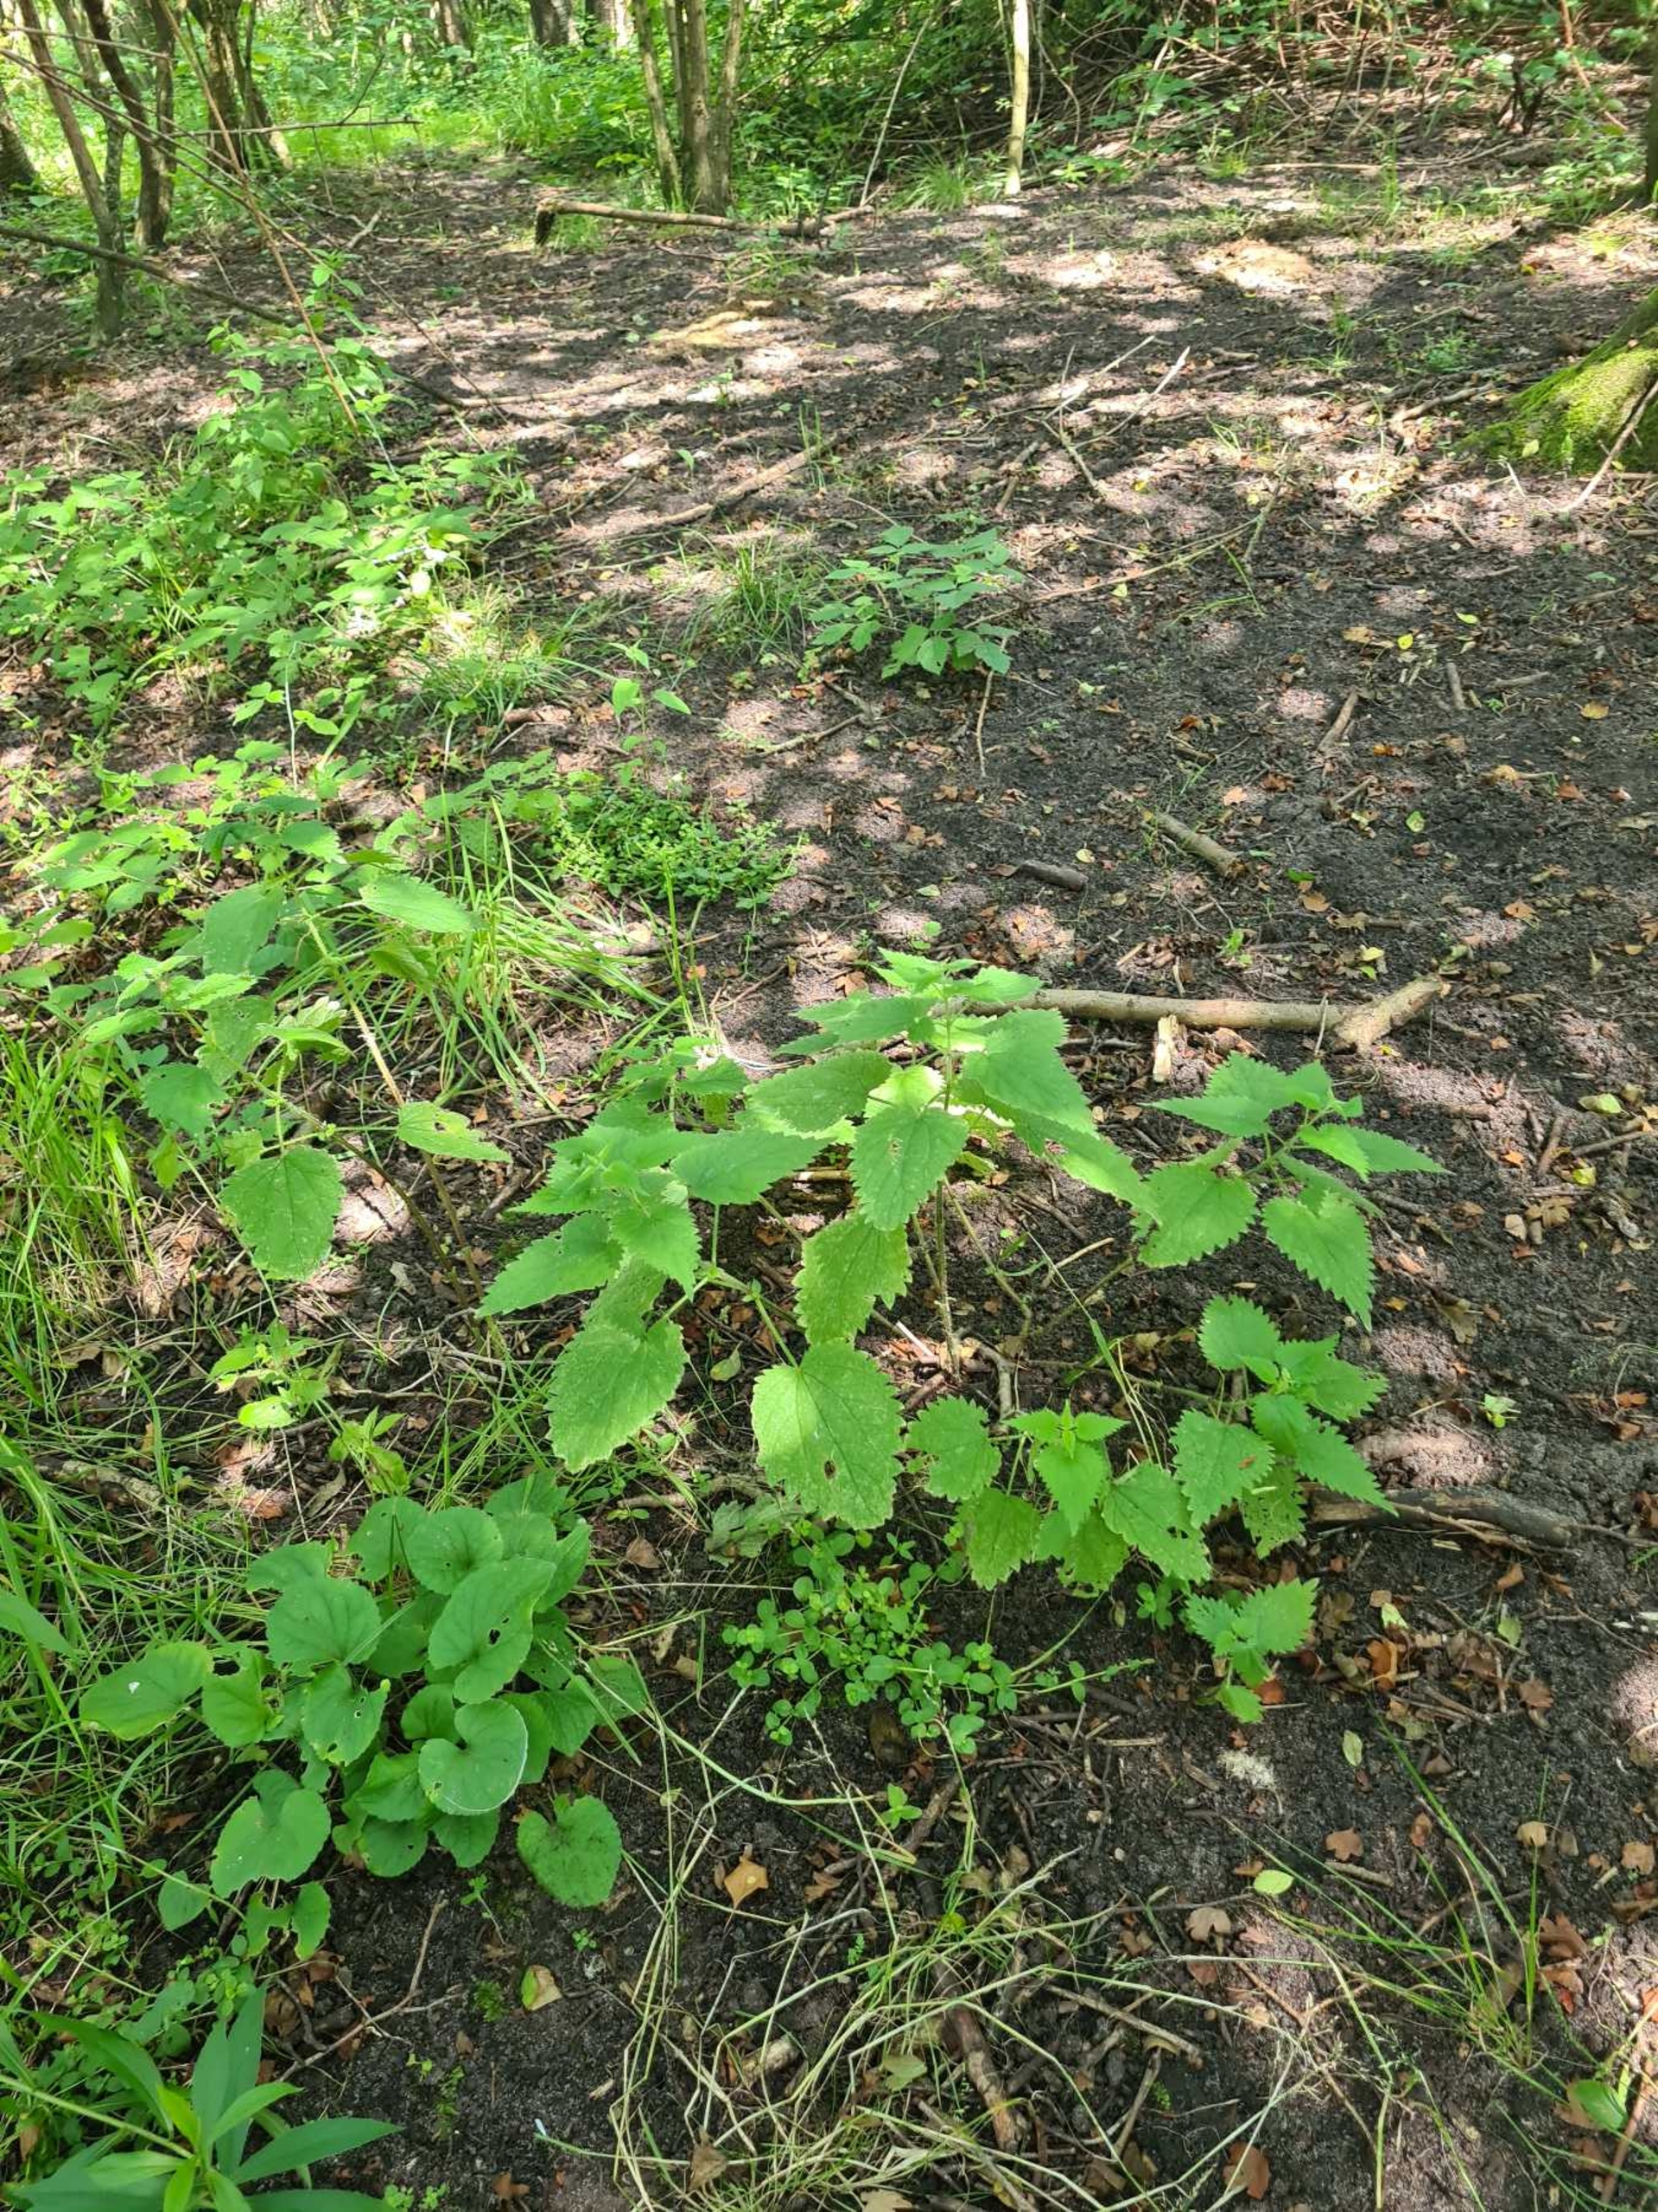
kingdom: Plantae
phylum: Tracheophyta
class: Magnoliopsida
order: Rosales
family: Urticaceae
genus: Urtica
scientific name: Urtica dioica
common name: Stor nælde
